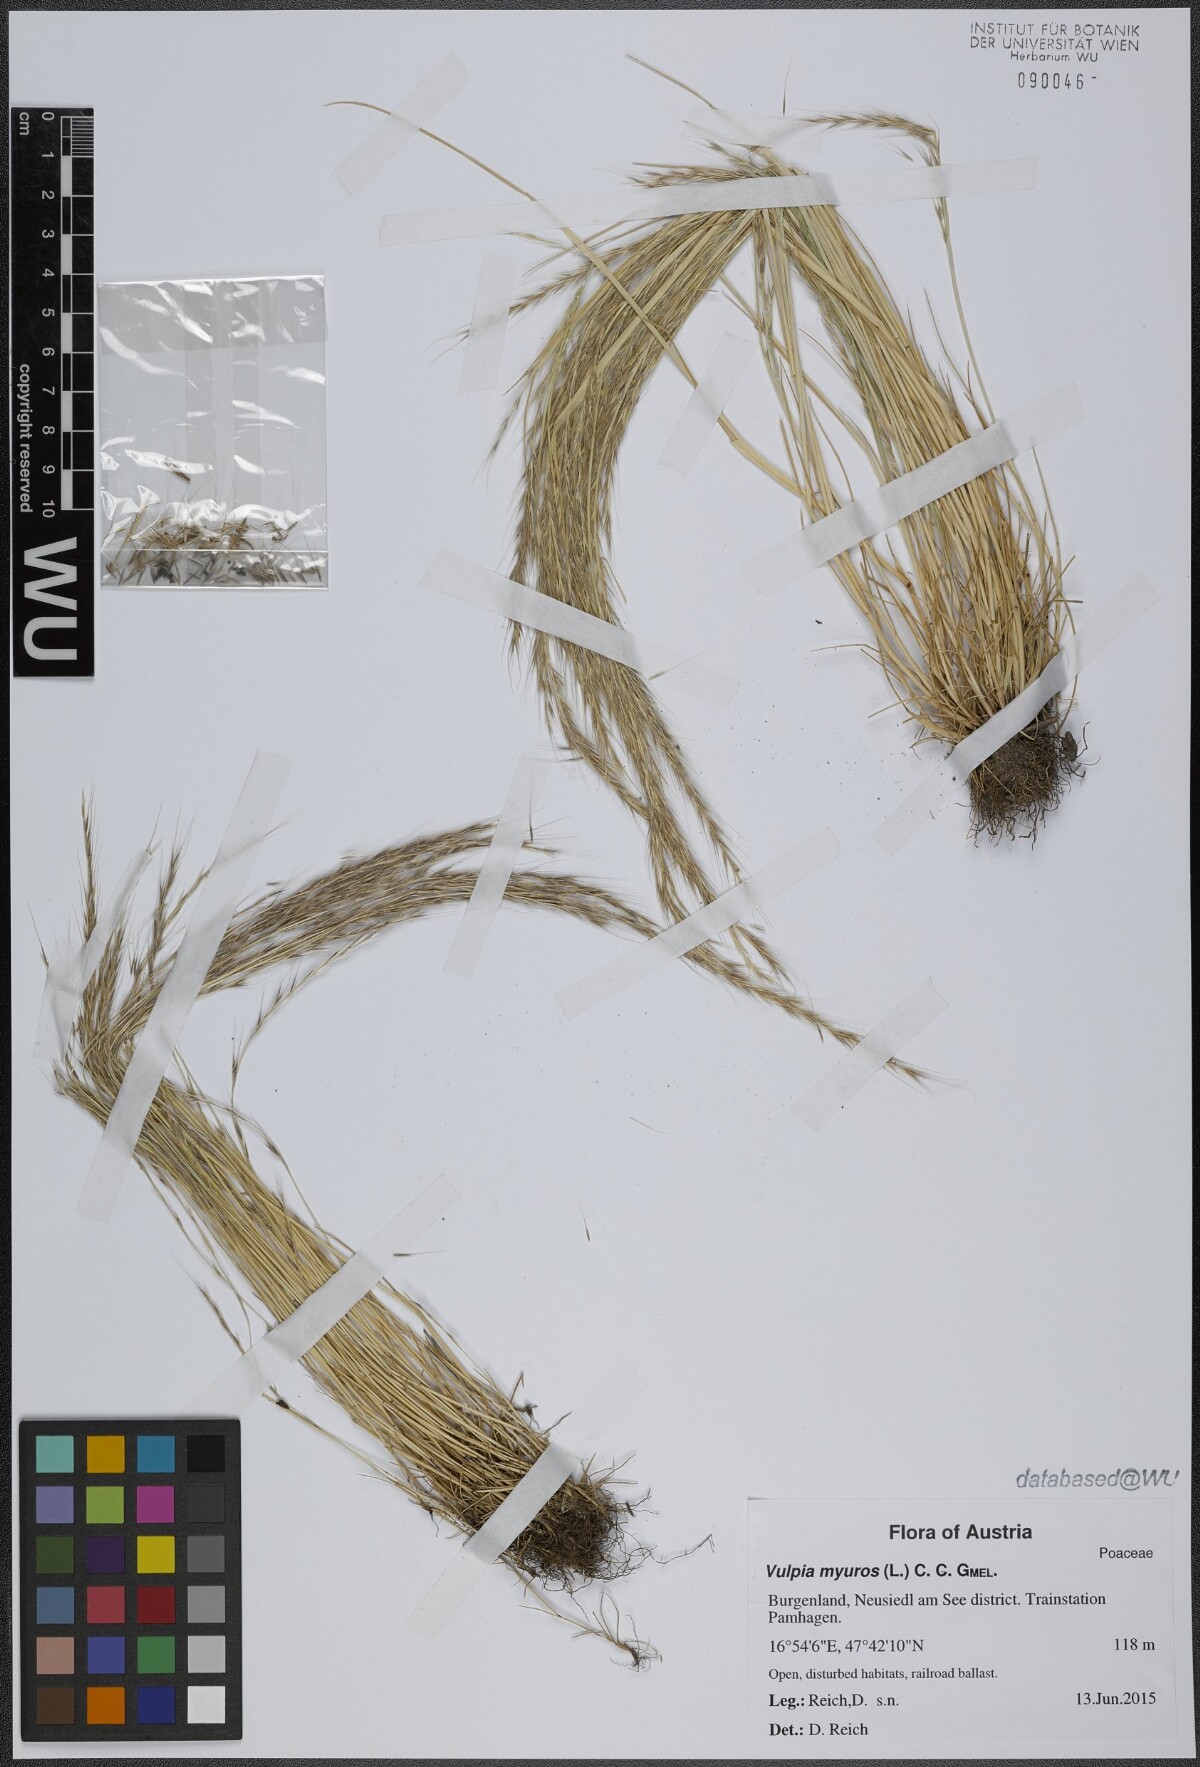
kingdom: Plantae
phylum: Tracheophyta
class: Liliopsida
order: Poales
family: Poaceae
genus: Festuca
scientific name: Festuca myuros
